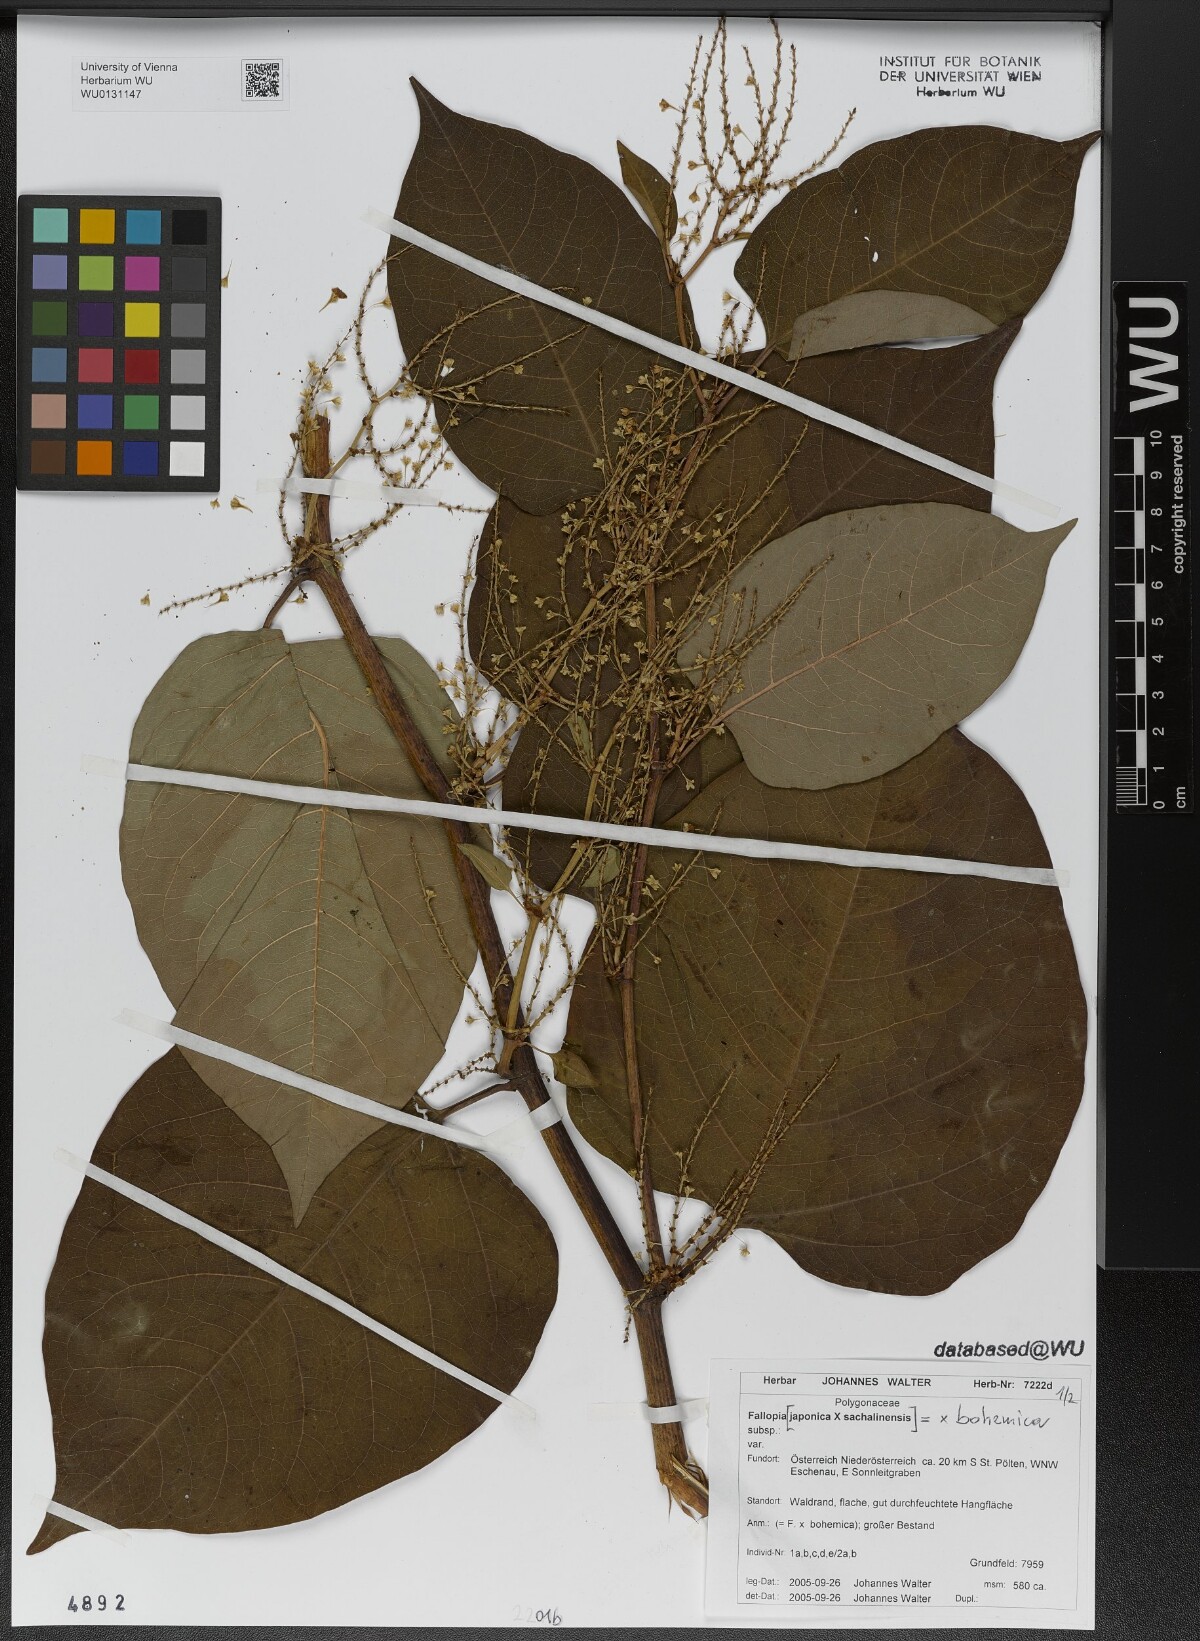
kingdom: Plantae
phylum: Tracheophyta
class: Magnoliopsida
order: Caryophyllales
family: Polygonaceae
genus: Reynoutria
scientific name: Reynoutria bohemica
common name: Bohemian knotweed
